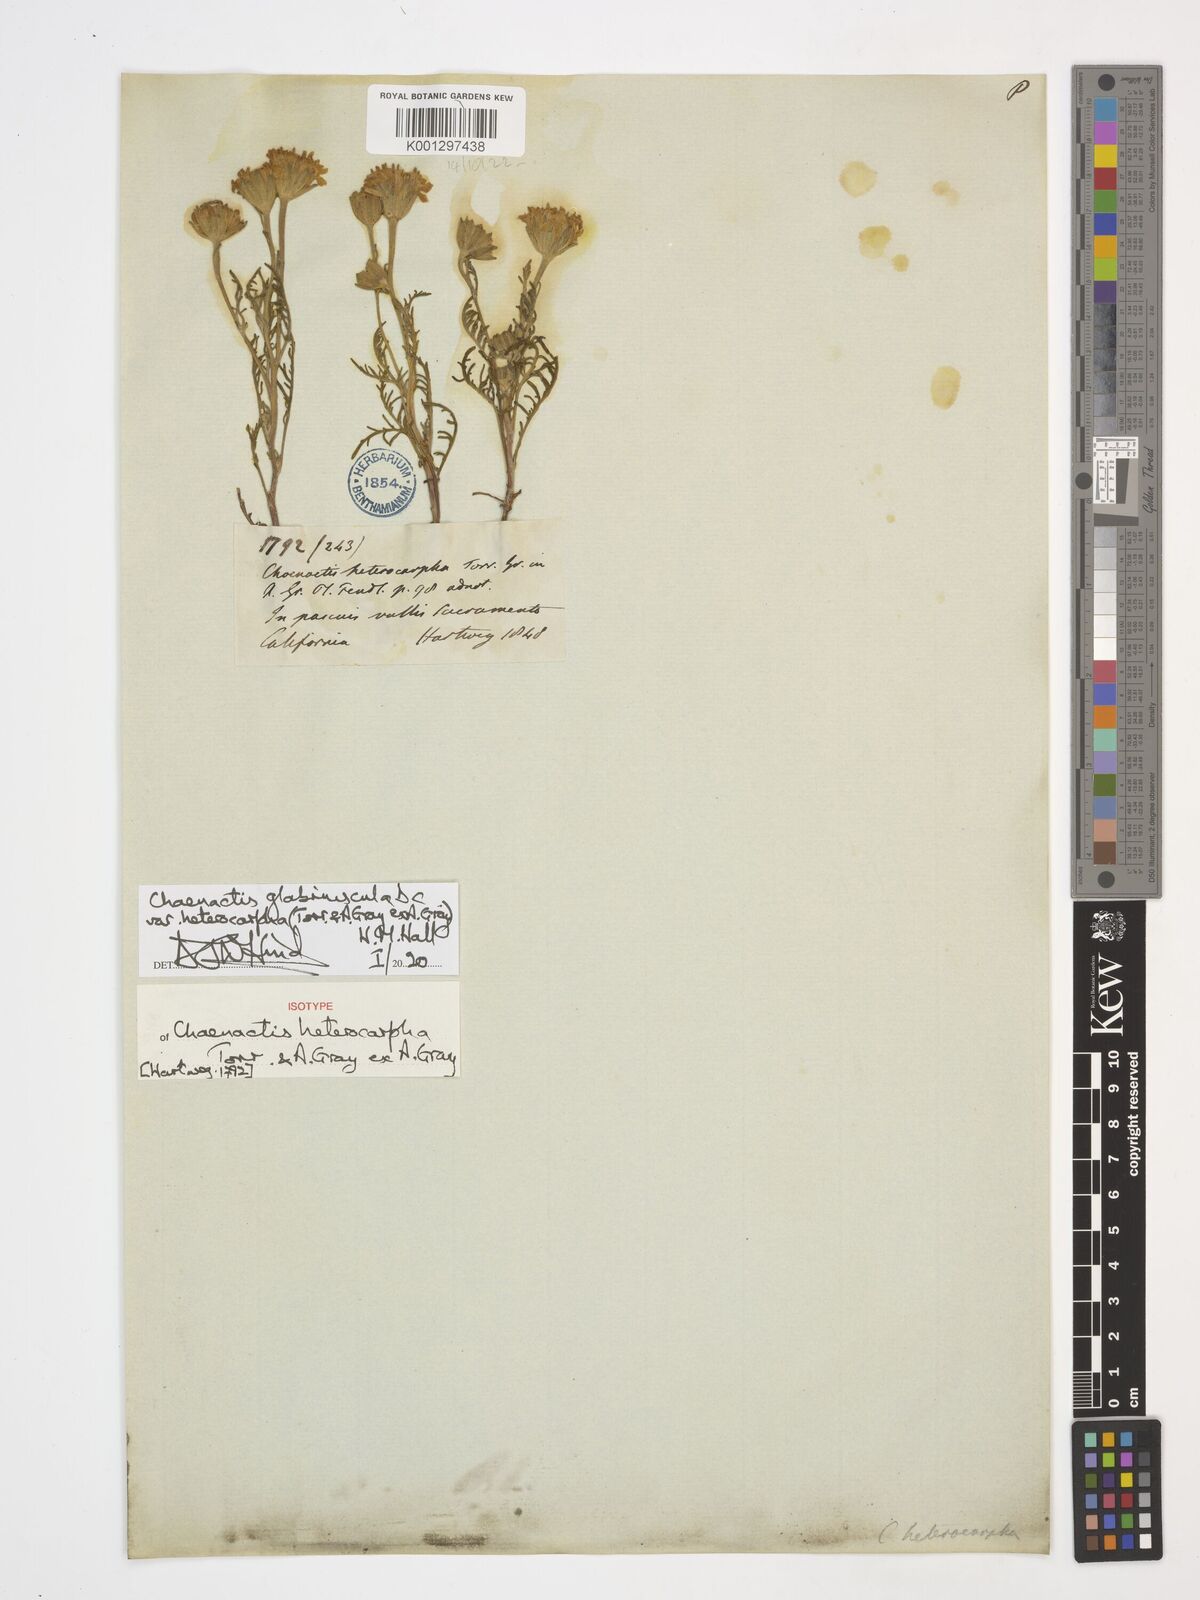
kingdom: Plantae
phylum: Tracheophyta
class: Magnoliopsida
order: Asterales
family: Asteraceae
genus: Chaenactis
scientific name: Chaenactis glabriuscula
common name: Yellow pincushion
